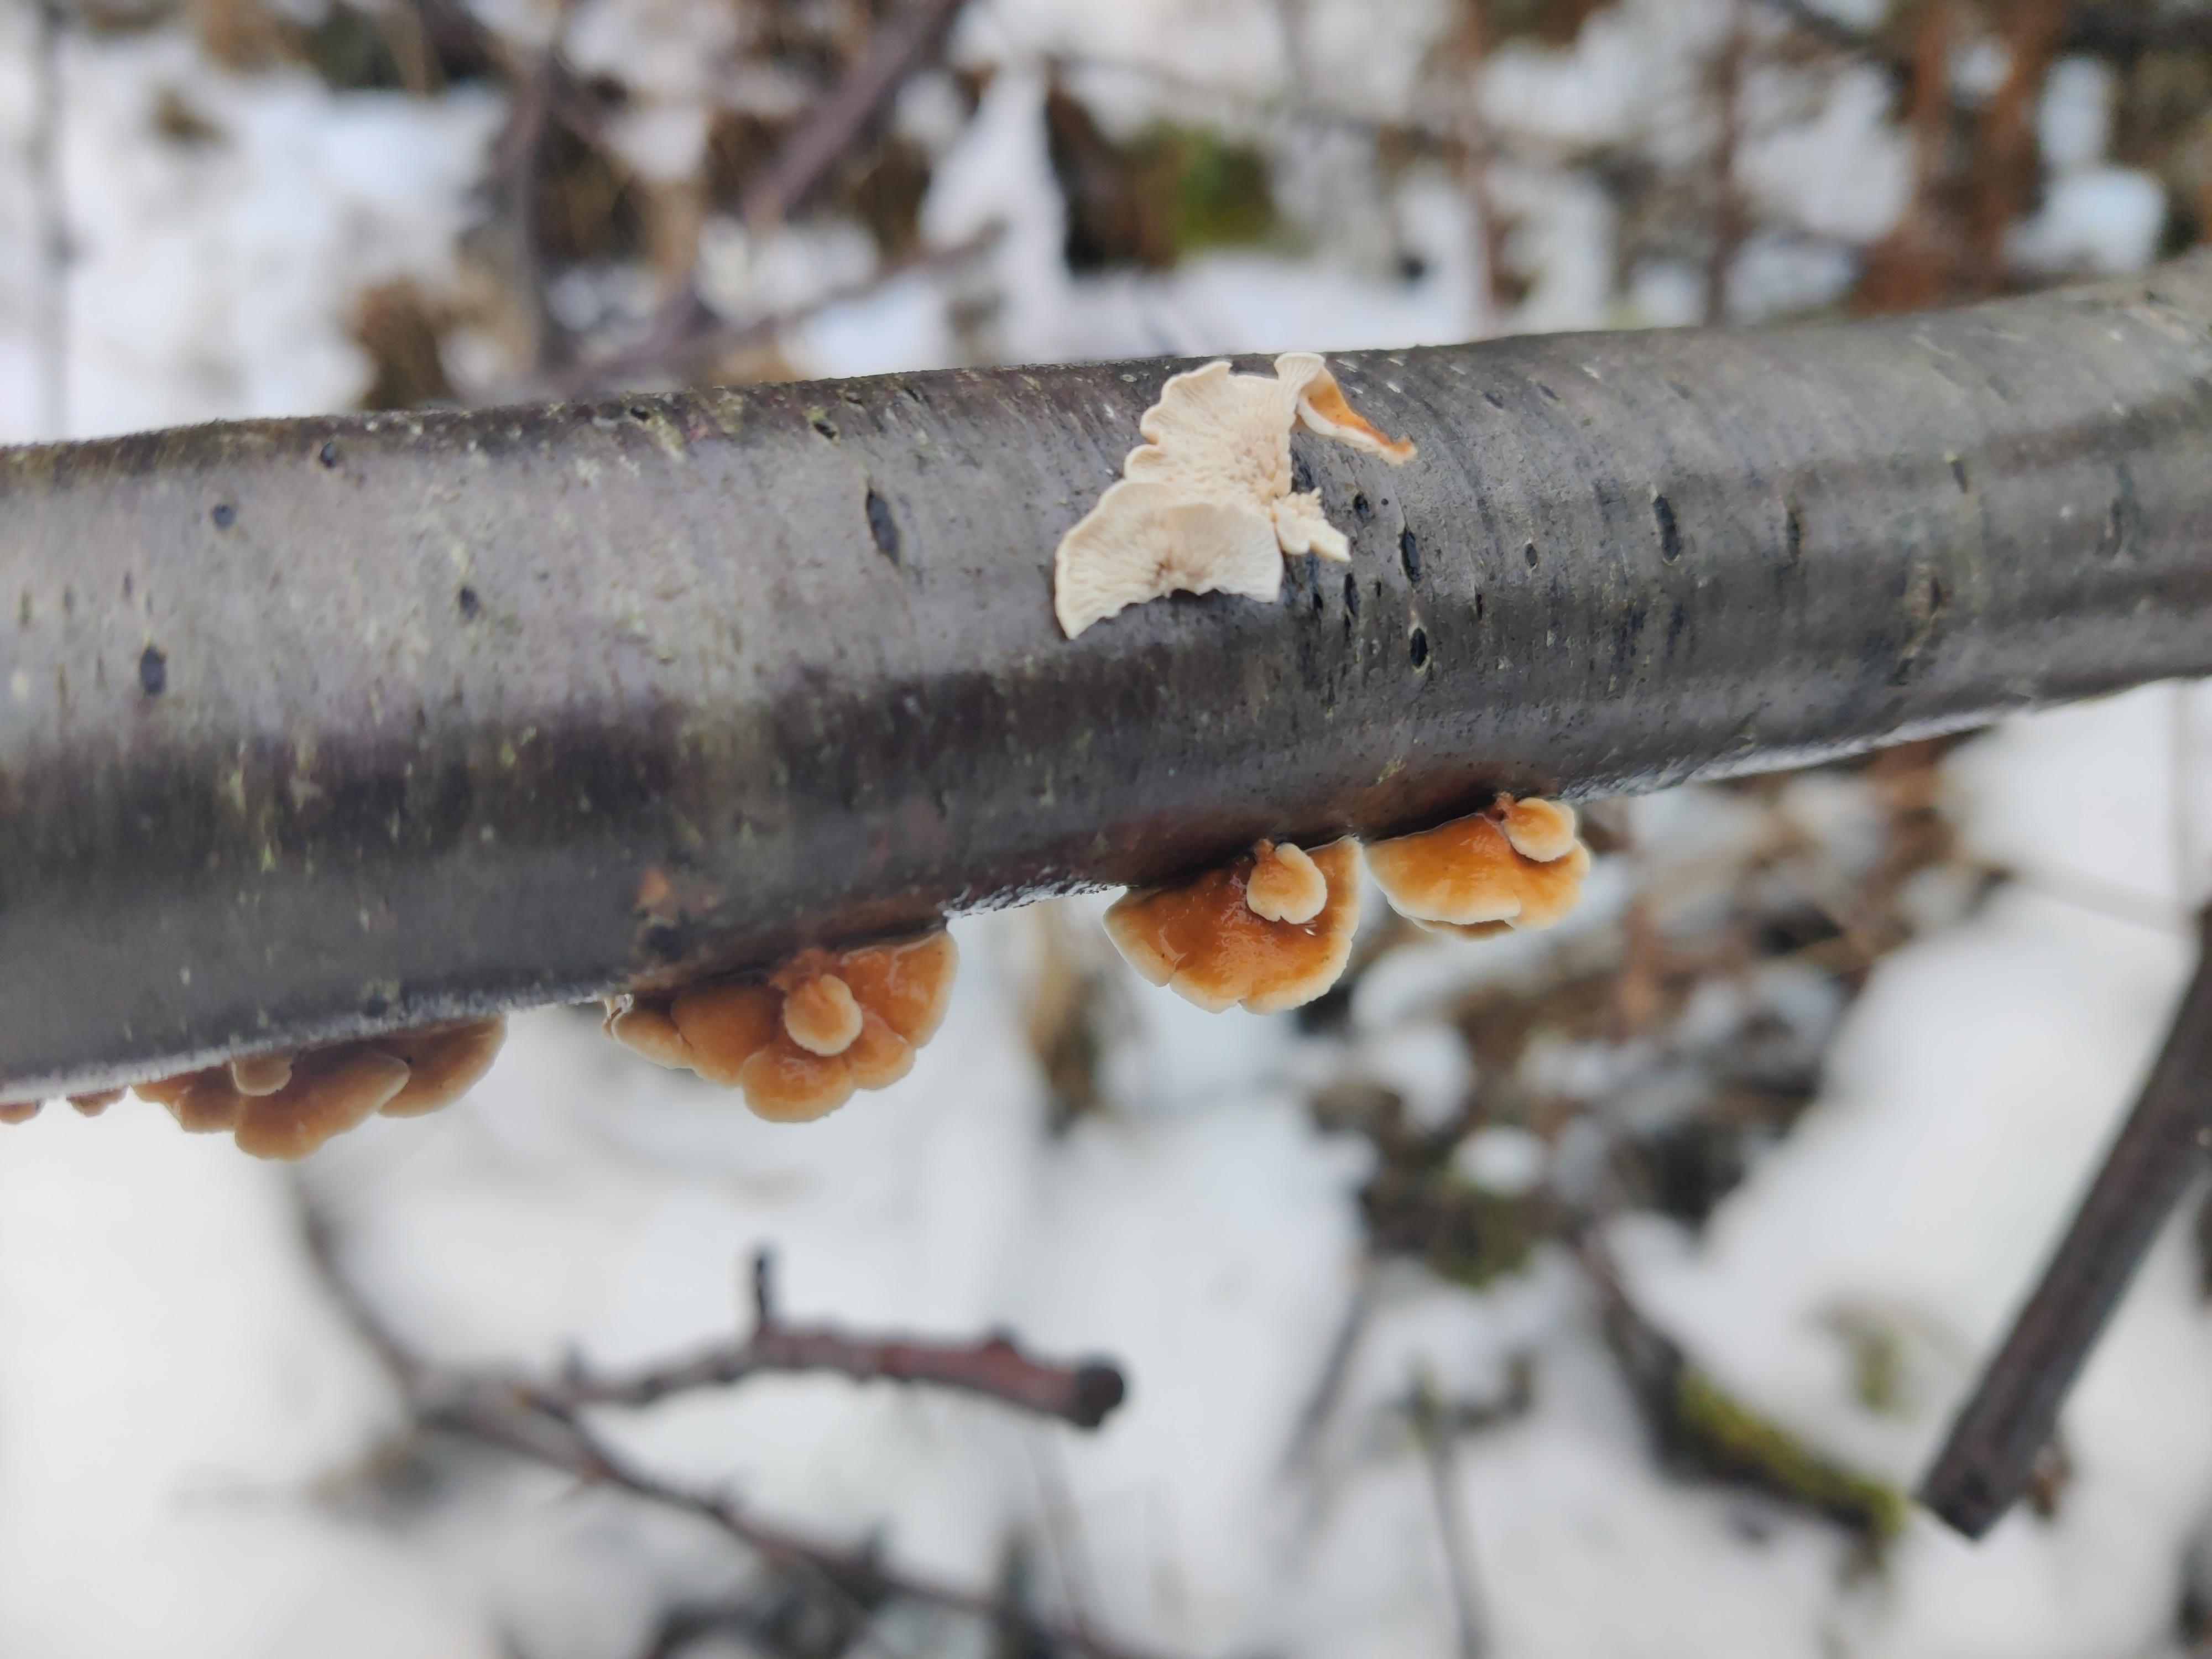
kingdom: Fungi
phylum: Basidiomycota
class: Agaricomycetes
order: Amylocorticiales
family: Amylocorticiaceae
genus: Plicaturopsis
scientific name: Plicaturopsis crispa
